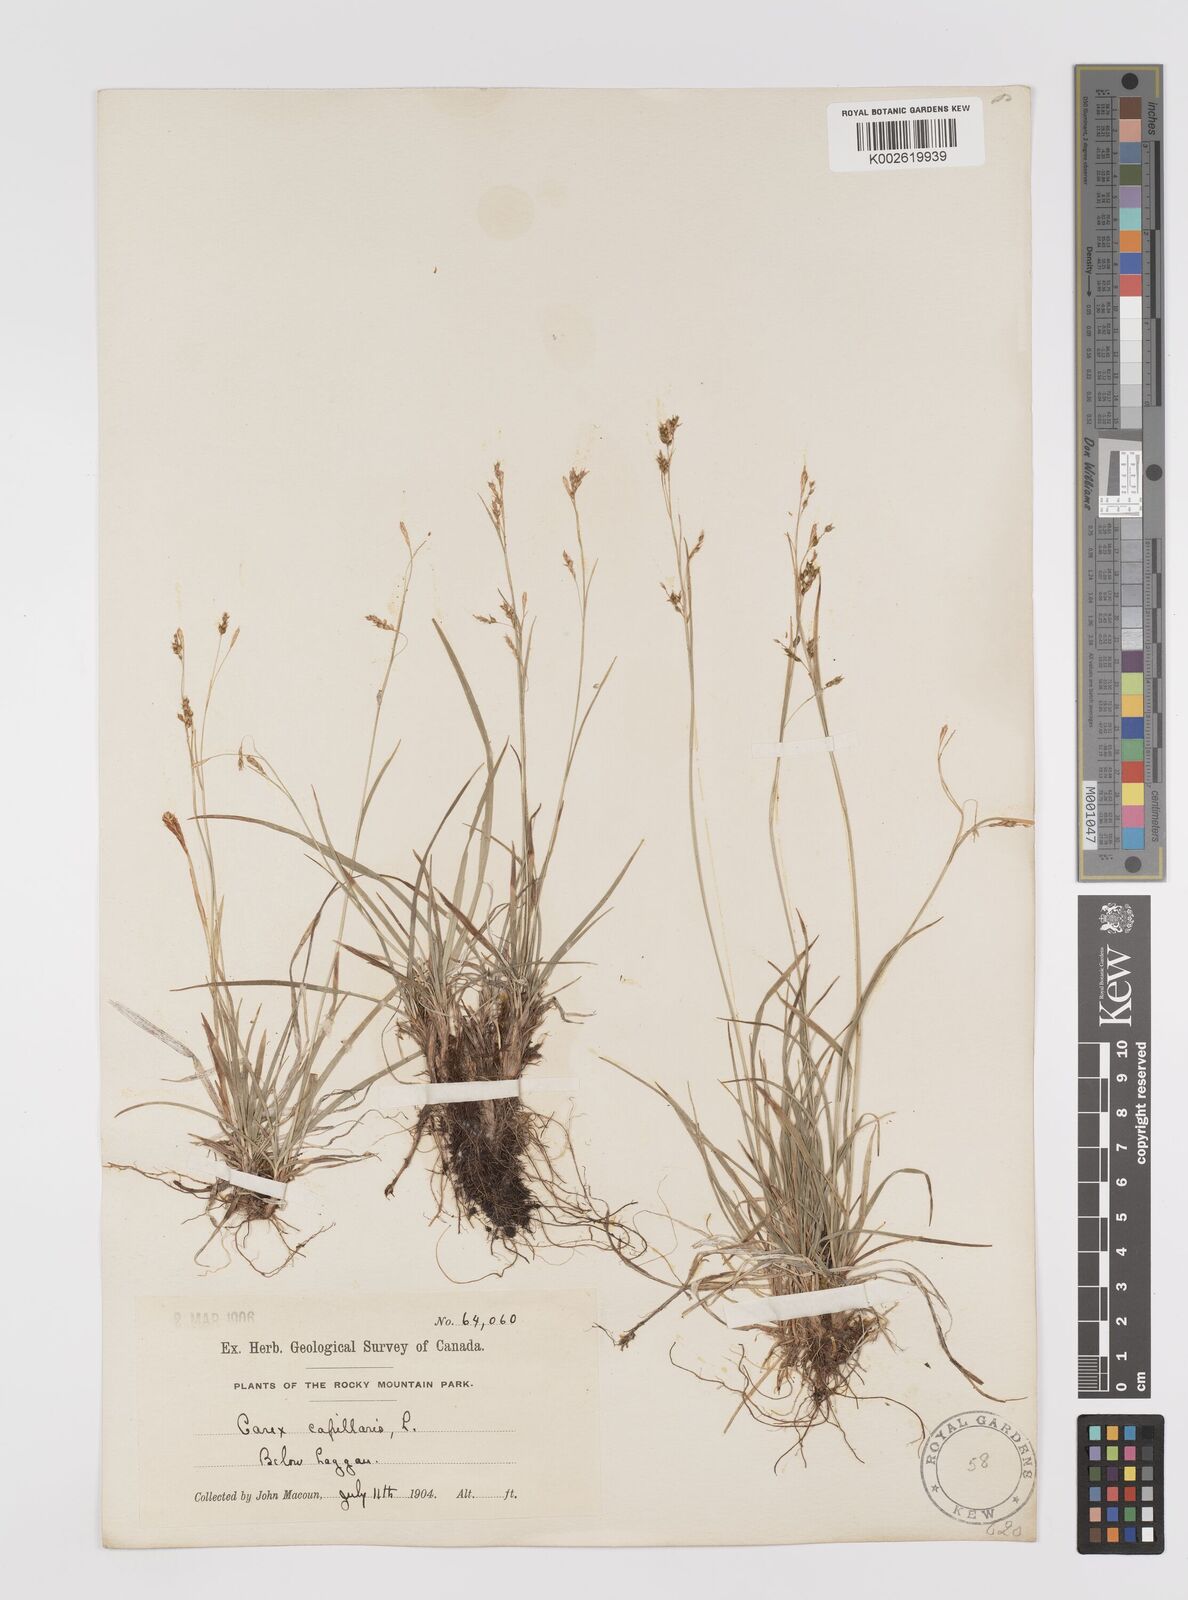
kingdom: Plantae
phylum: Tracheophyta
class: Liliopsida
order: Poales
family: Cyperaceae
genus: Carex
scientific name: Carex capillaris
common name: Hair sedge
